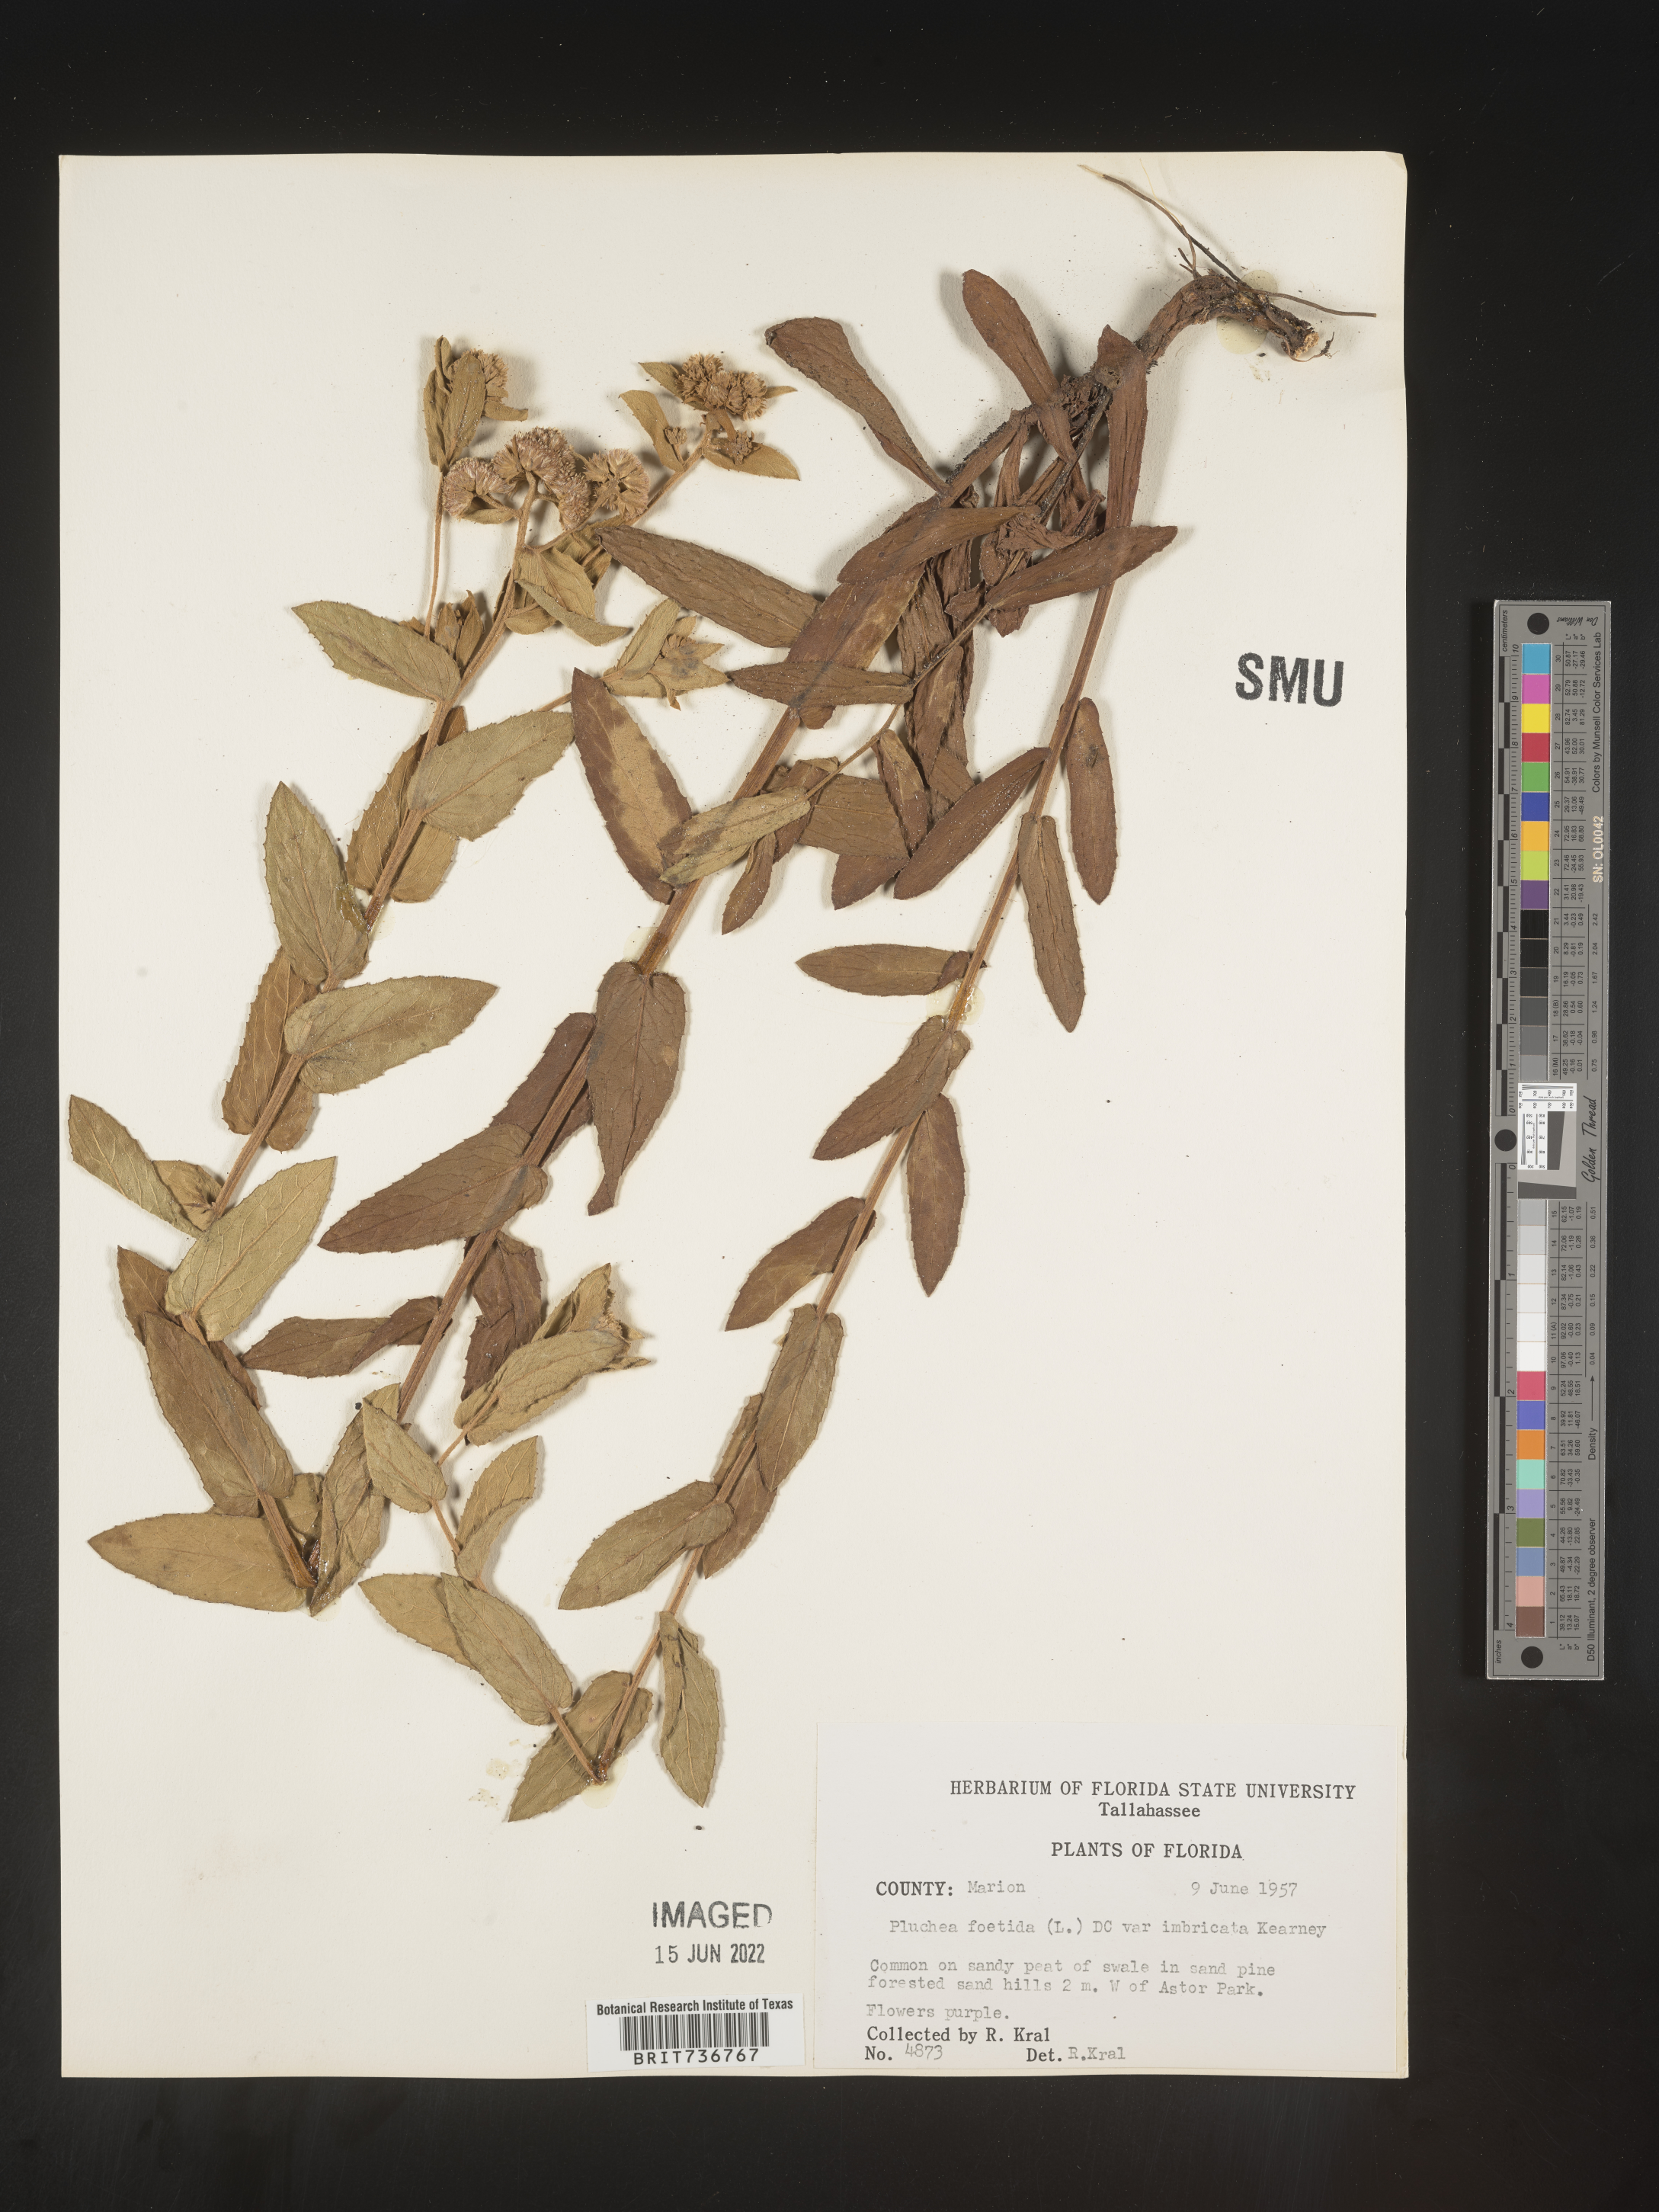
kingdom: Plantae
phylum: Tracheophyta
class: Magnoliopsida
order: Asterales
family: Asteraceae
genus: Pluchea
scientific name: Pluchea baccharis
